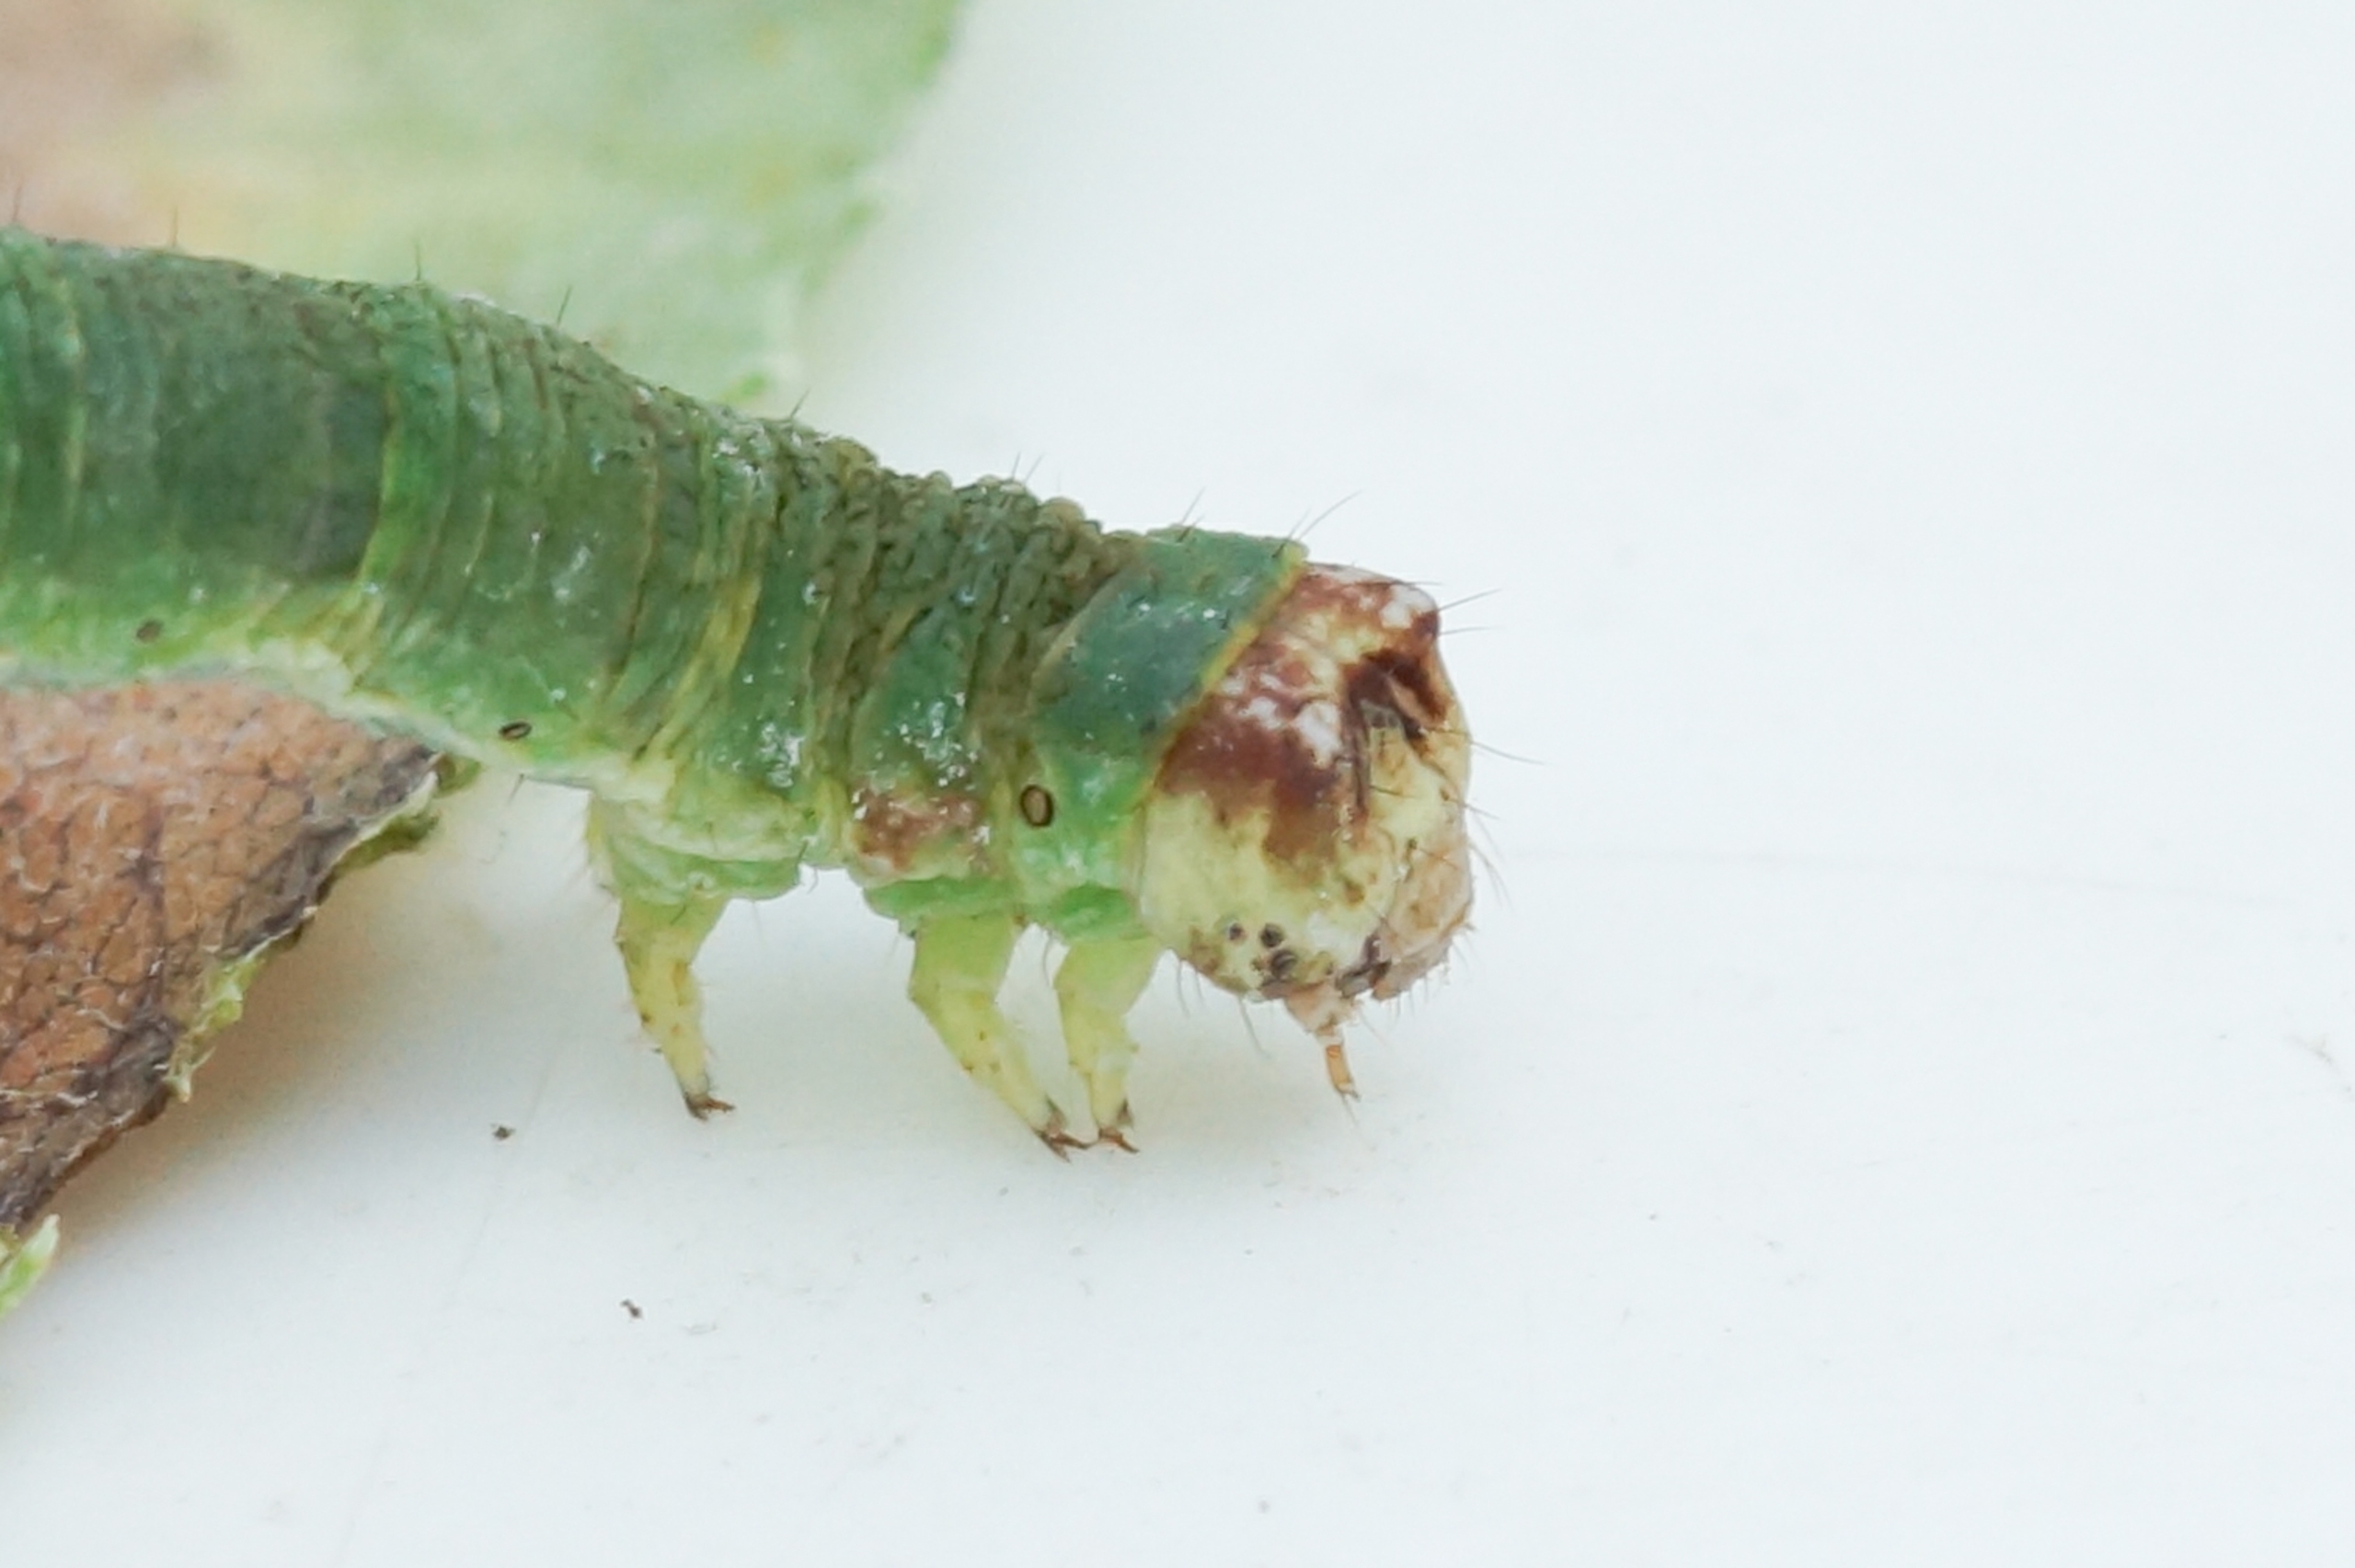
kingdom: Animalia
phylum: Arthropoda
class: Insecta
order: Lepidoptera
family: Geometridae
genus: Opisthograptis
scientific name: Opisthograptis luteolata
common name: Citronmåler
